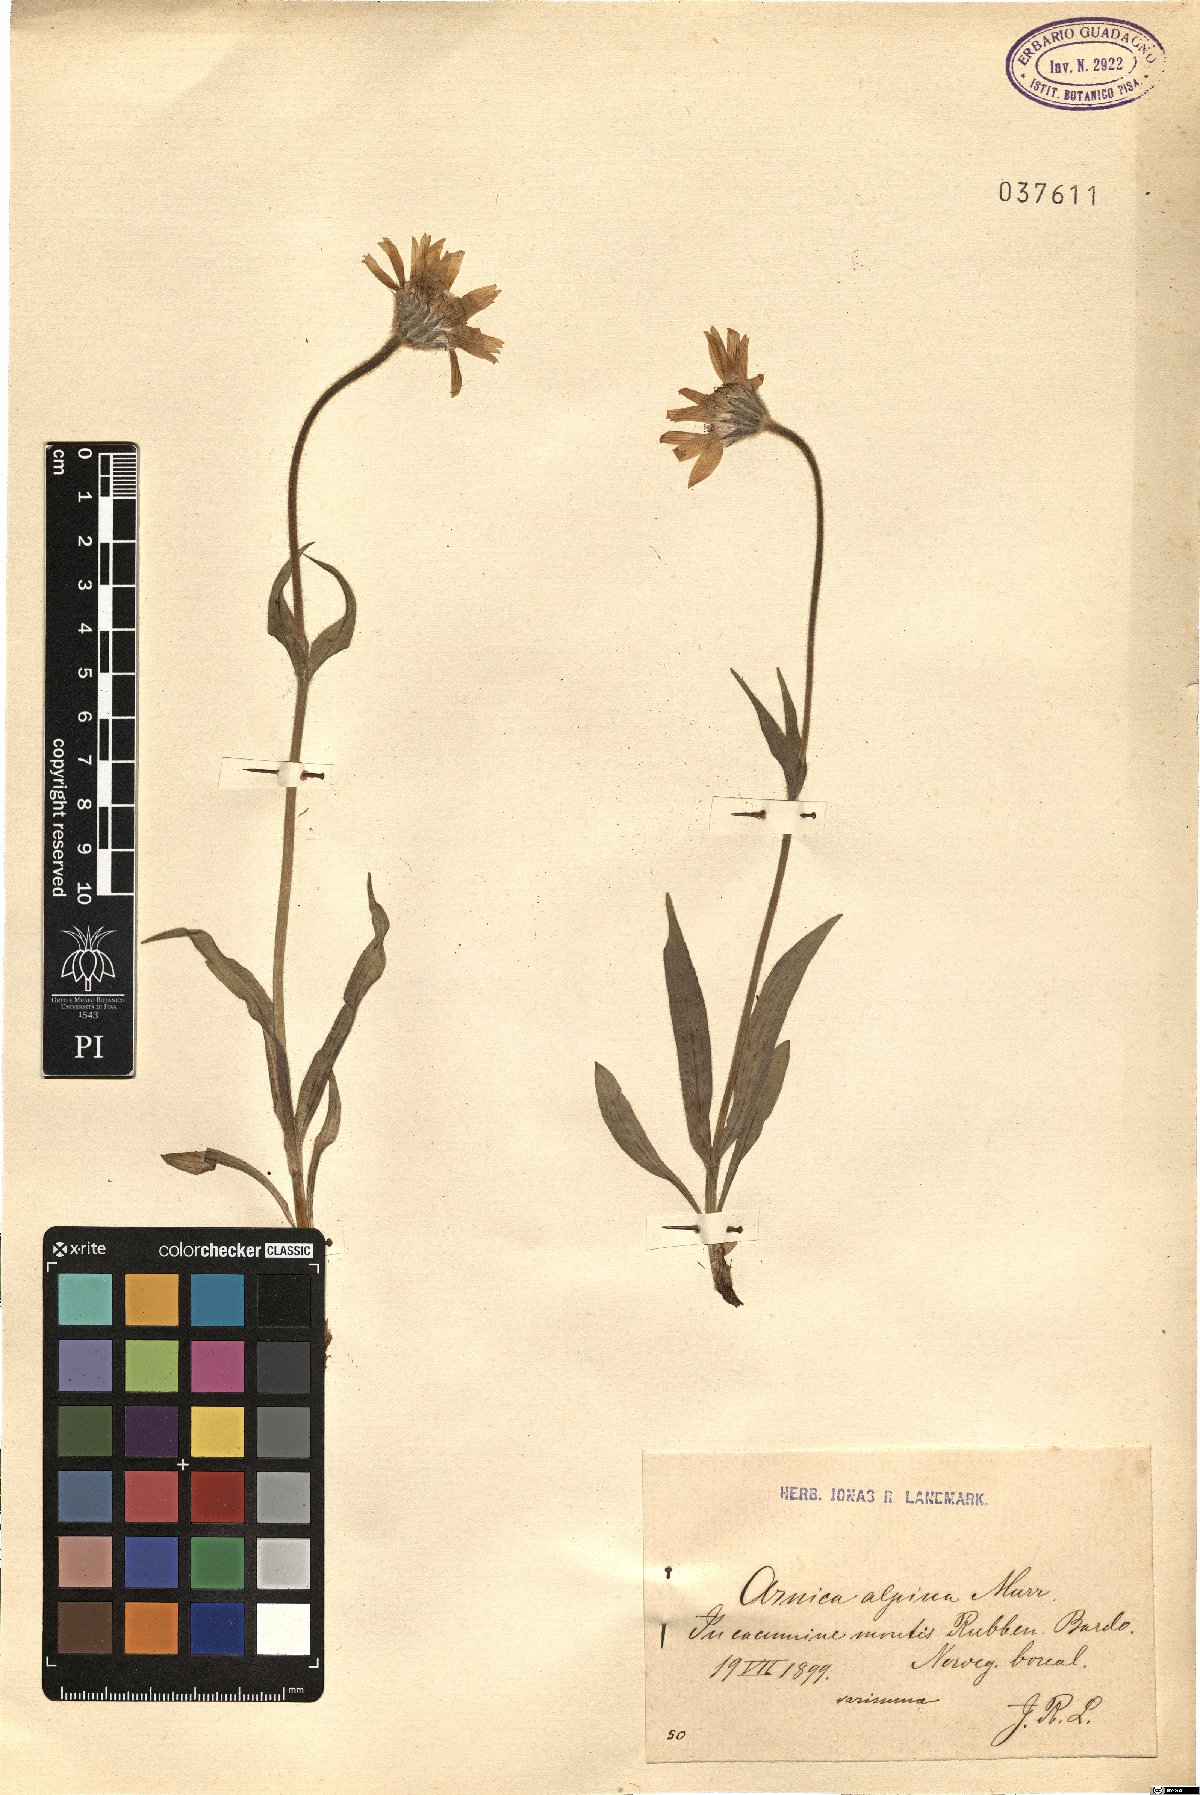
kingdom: Plantae
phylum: Tracheophyta
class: Magnoliopsida
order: Asterales
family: Asteraceae
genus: Arnica
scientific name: Arnica angustifolia
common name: Arctic arnica
